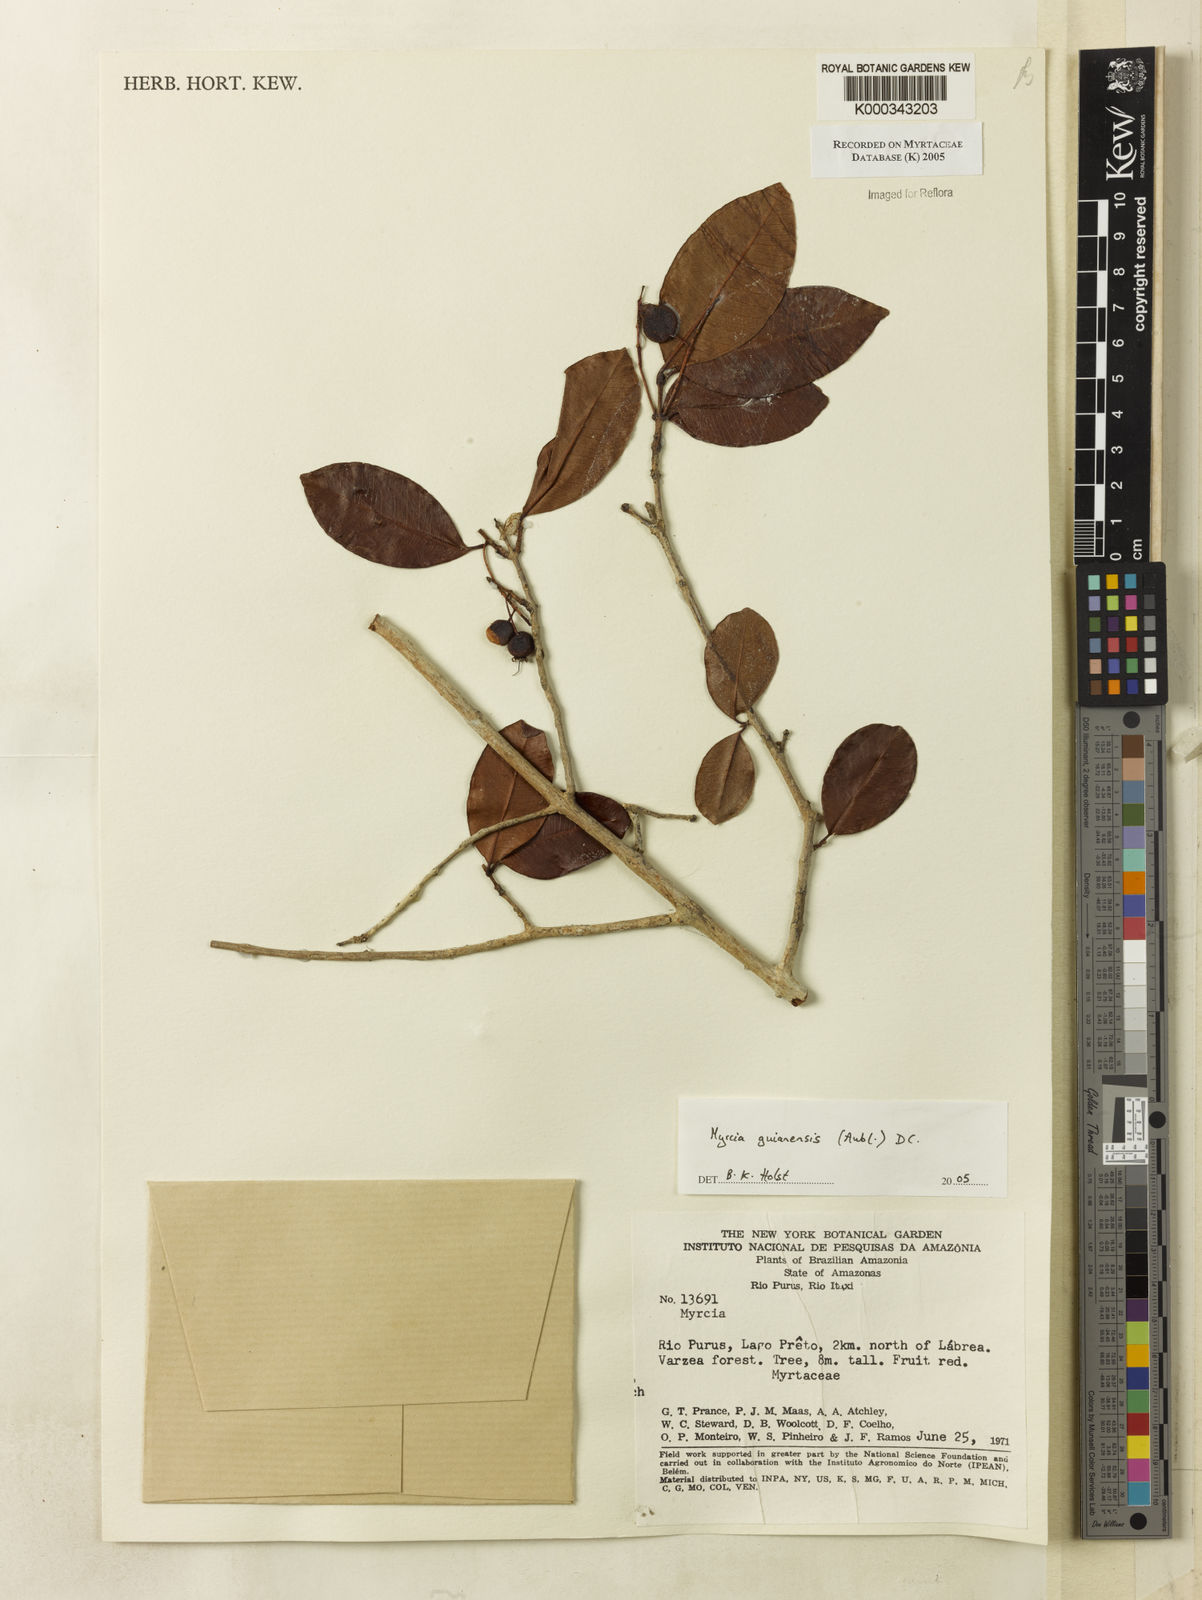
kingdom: Plantae
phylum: Tracheophyta
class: Magnoliopsida
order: Myrtales
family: Myrtaceae
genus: Myrcia
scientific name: Myrcia guianensis
